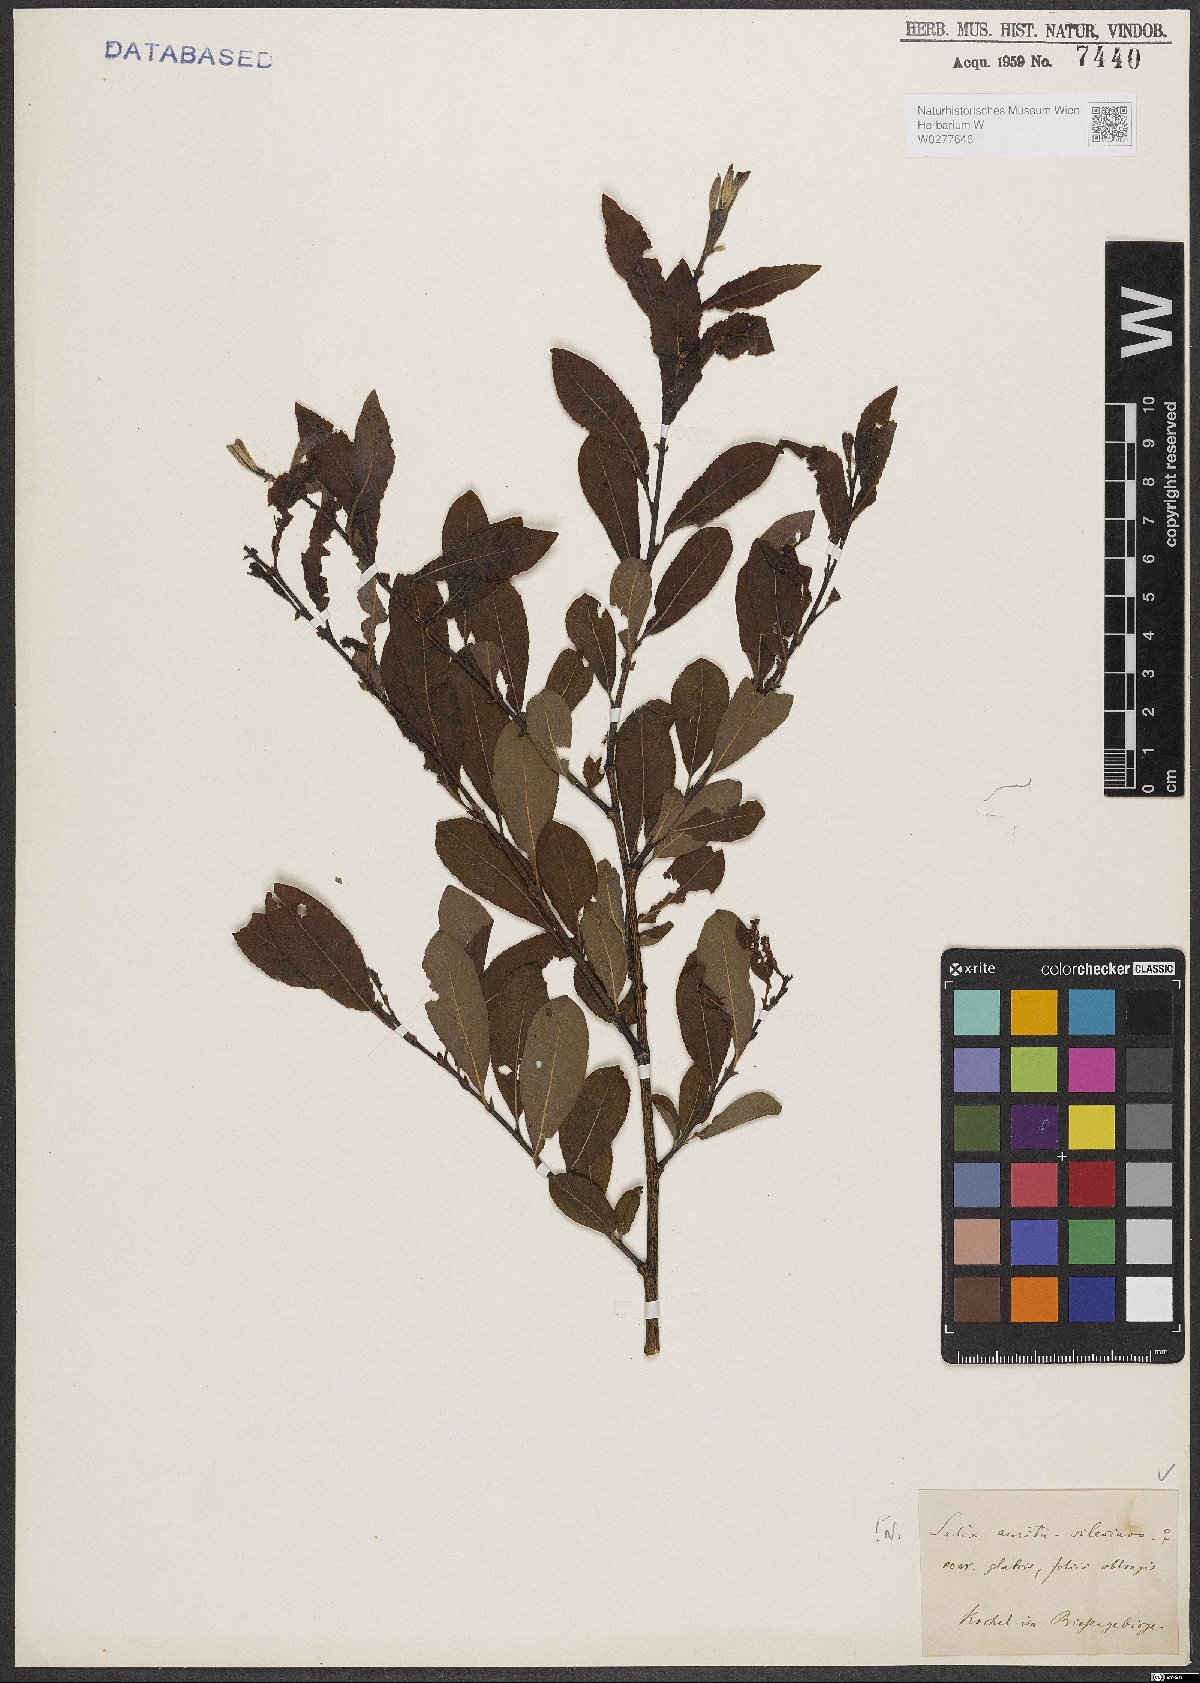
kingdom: Plantae
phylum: Tracheophyta
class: Magnoliopsida
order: Malpighiales
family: Salicaceae
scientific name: Salicaceae
